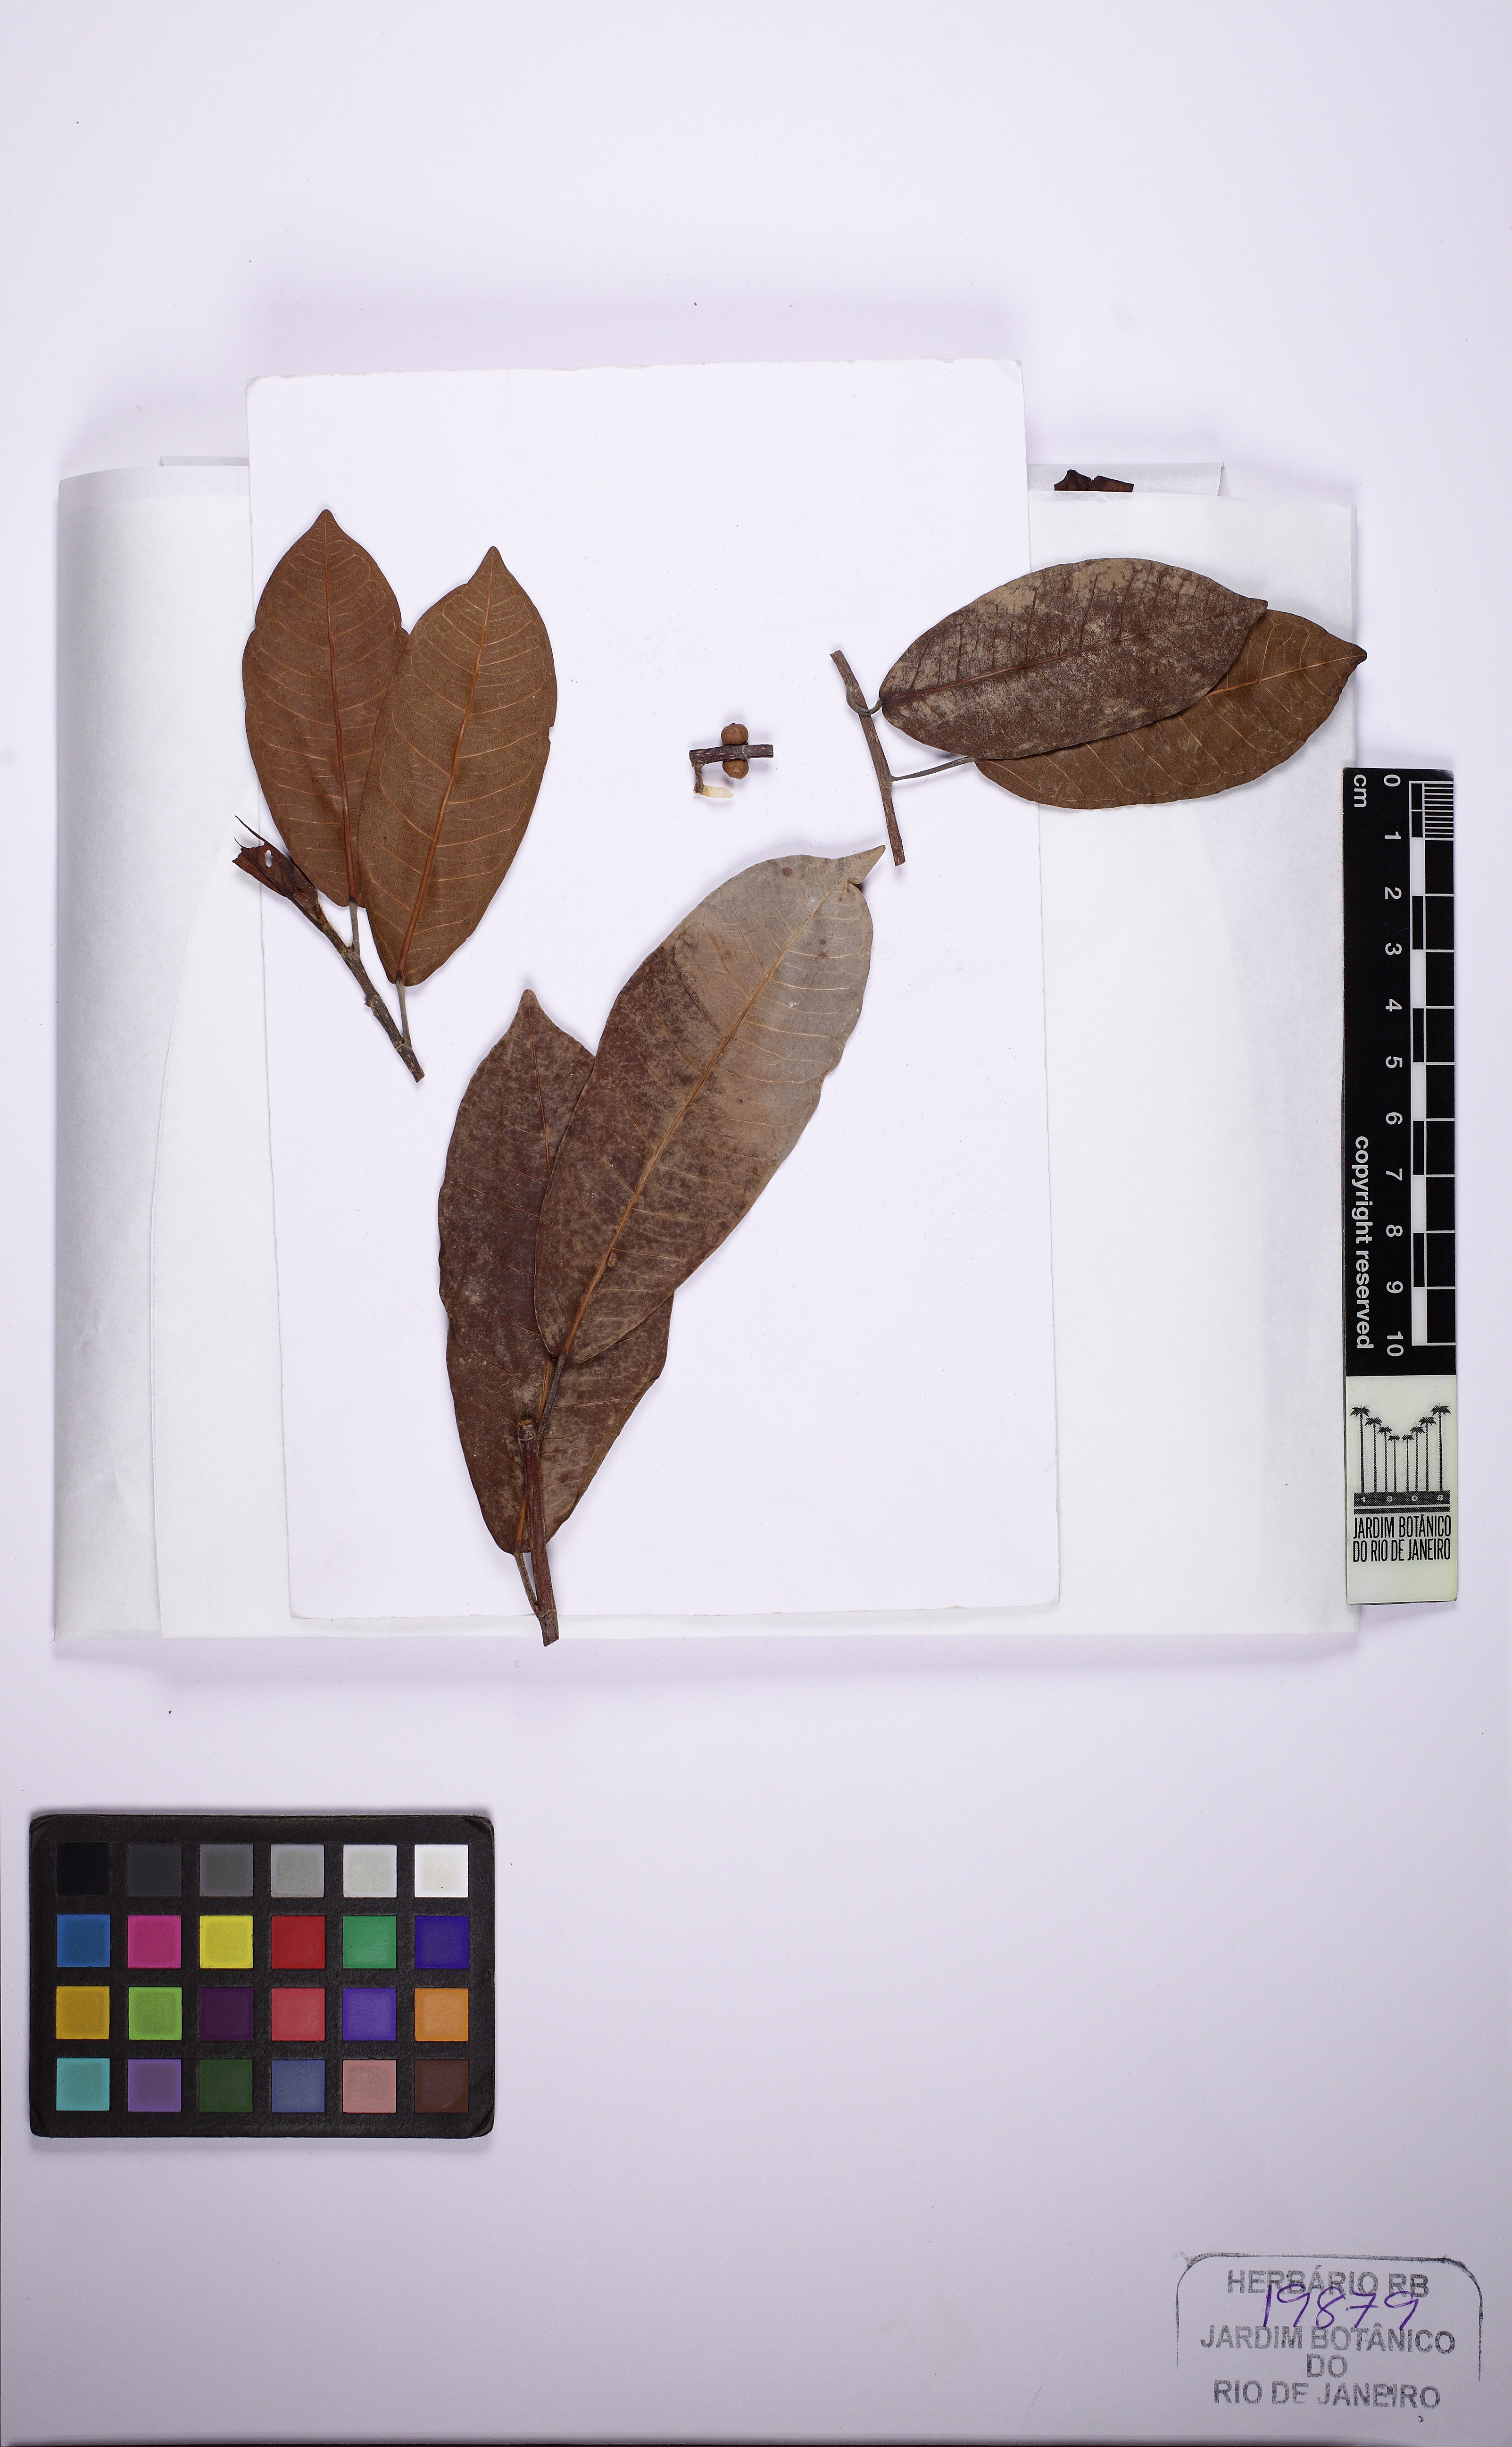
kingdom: Plantae
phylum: Tracheophyta
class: Magnoliopsida
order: Rosales
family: Moraceae
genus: Ficus
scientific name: Ficus coerulescens
